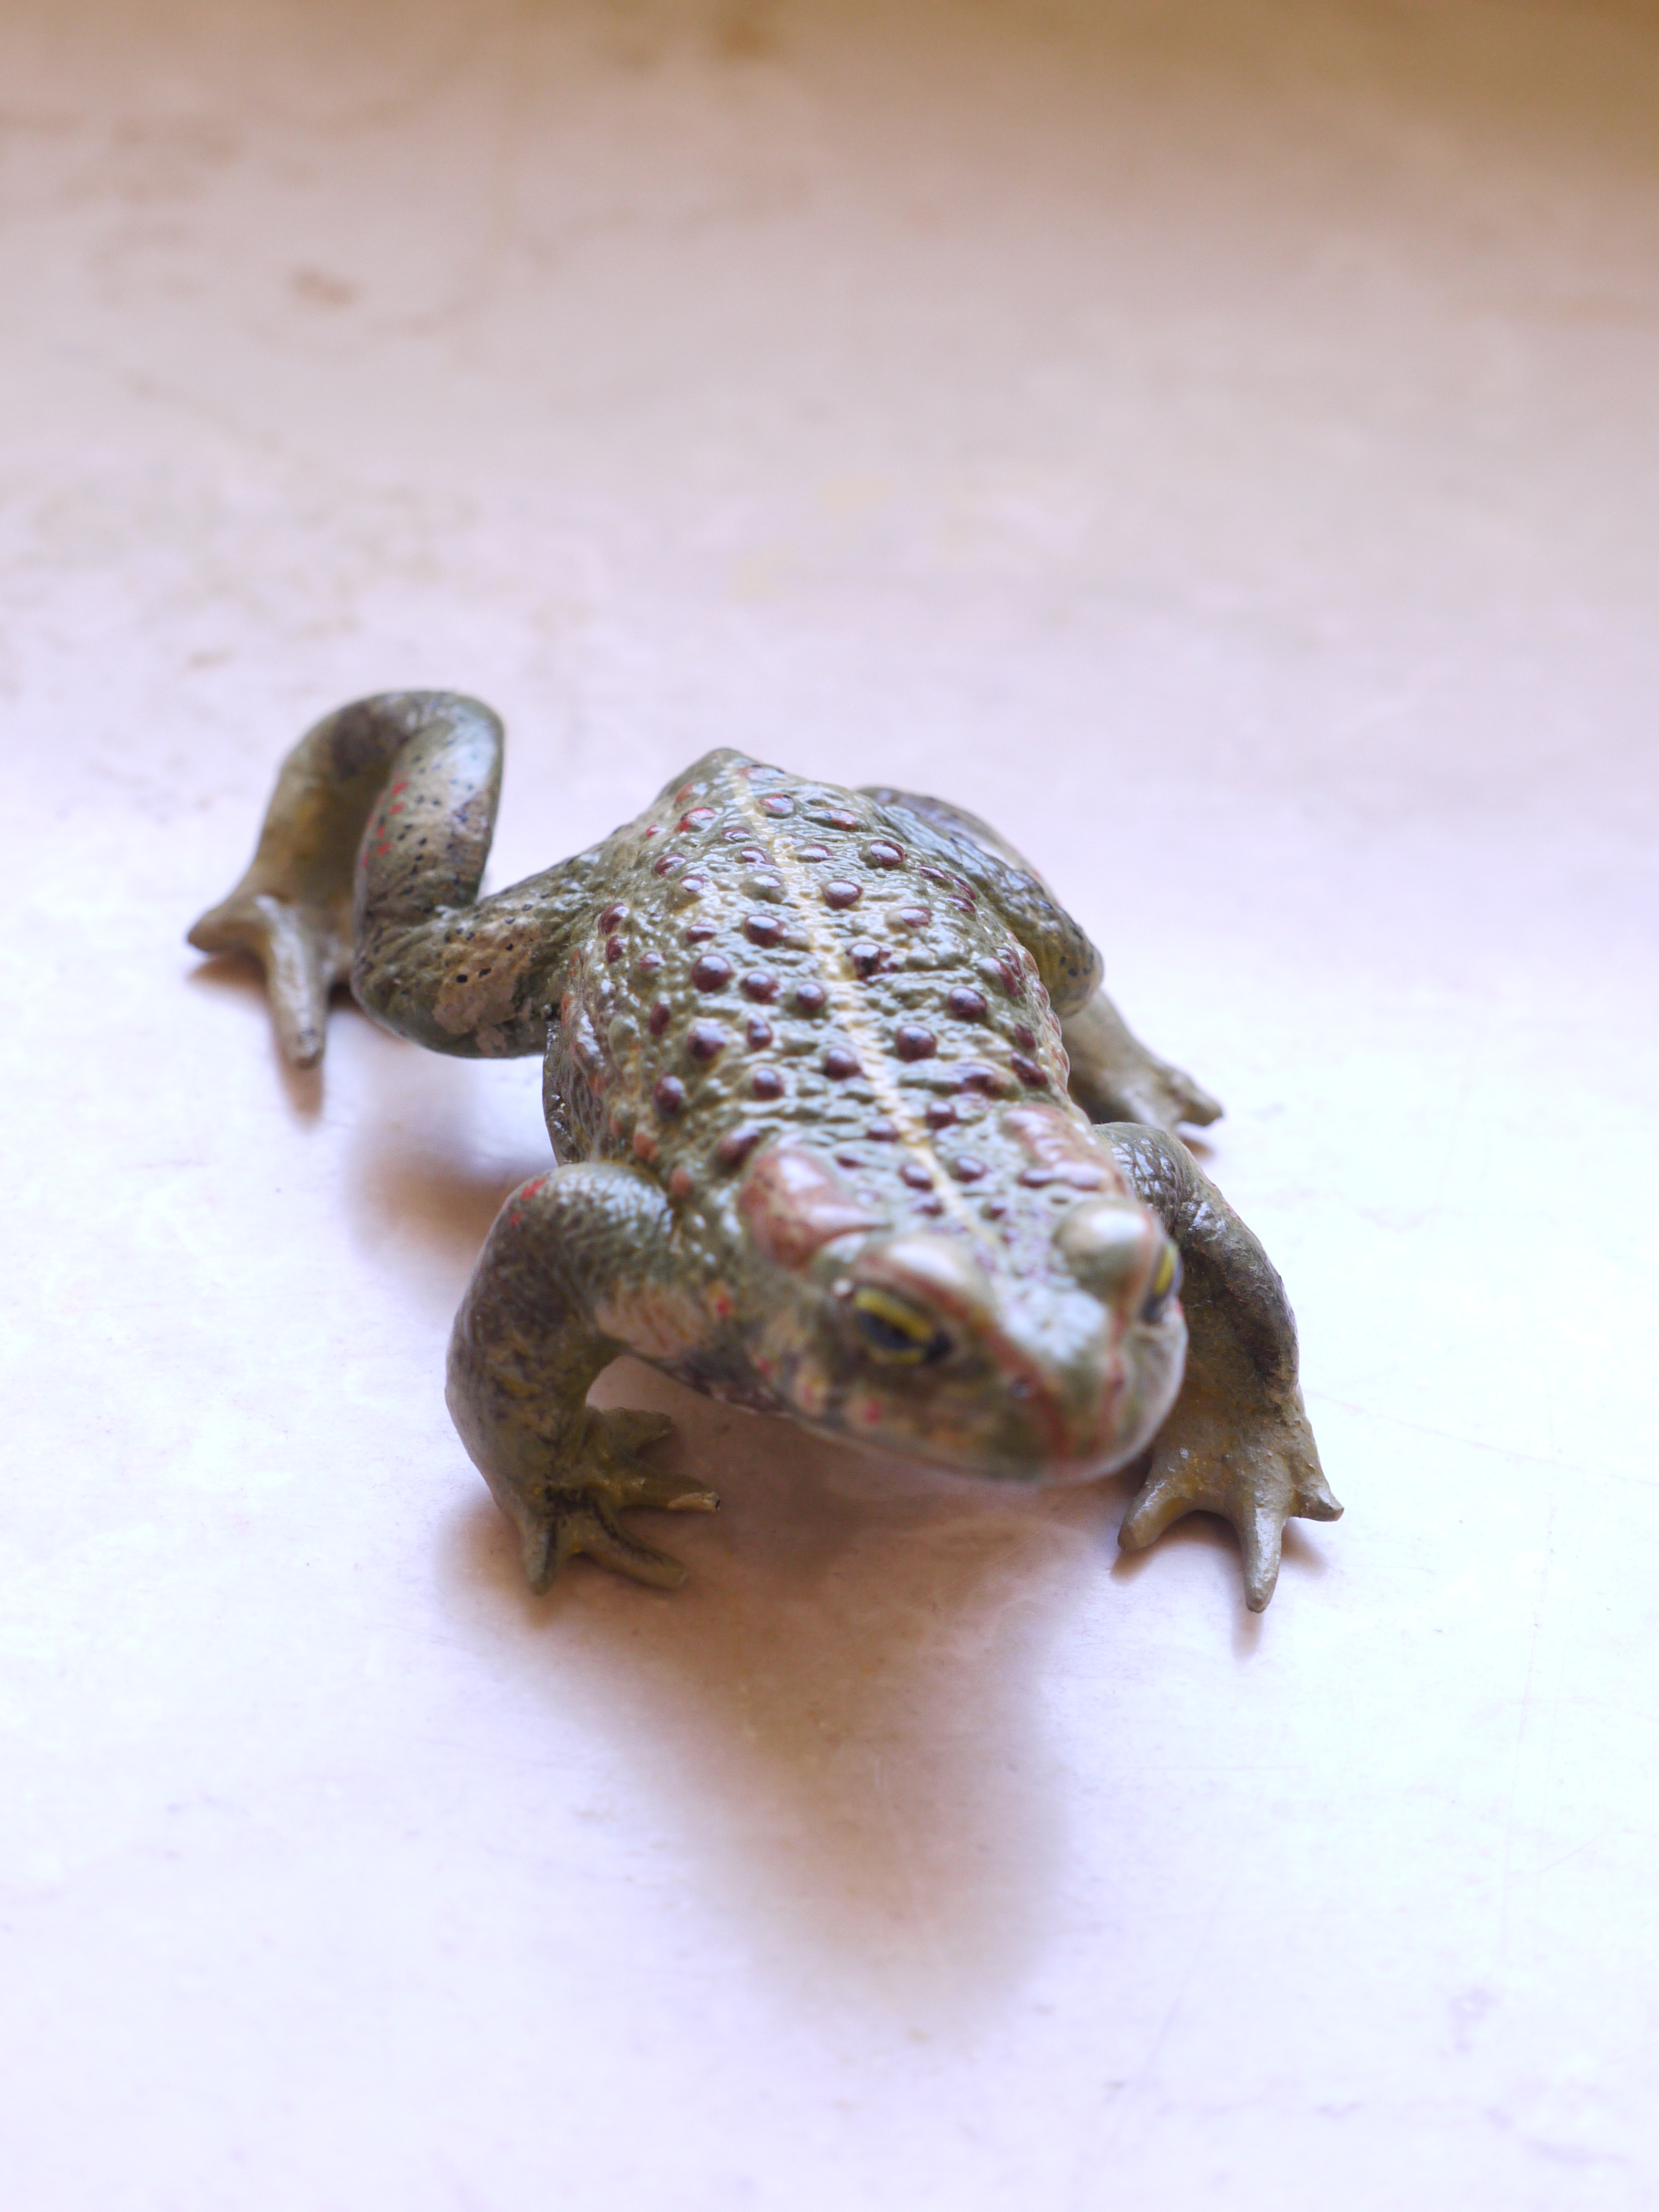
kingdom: Animalia
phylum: Chordata
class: Amphibia
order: Anura
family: Bufonidae
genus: Epidalea
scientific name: Epidalea calamita
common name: Natterjack toad
